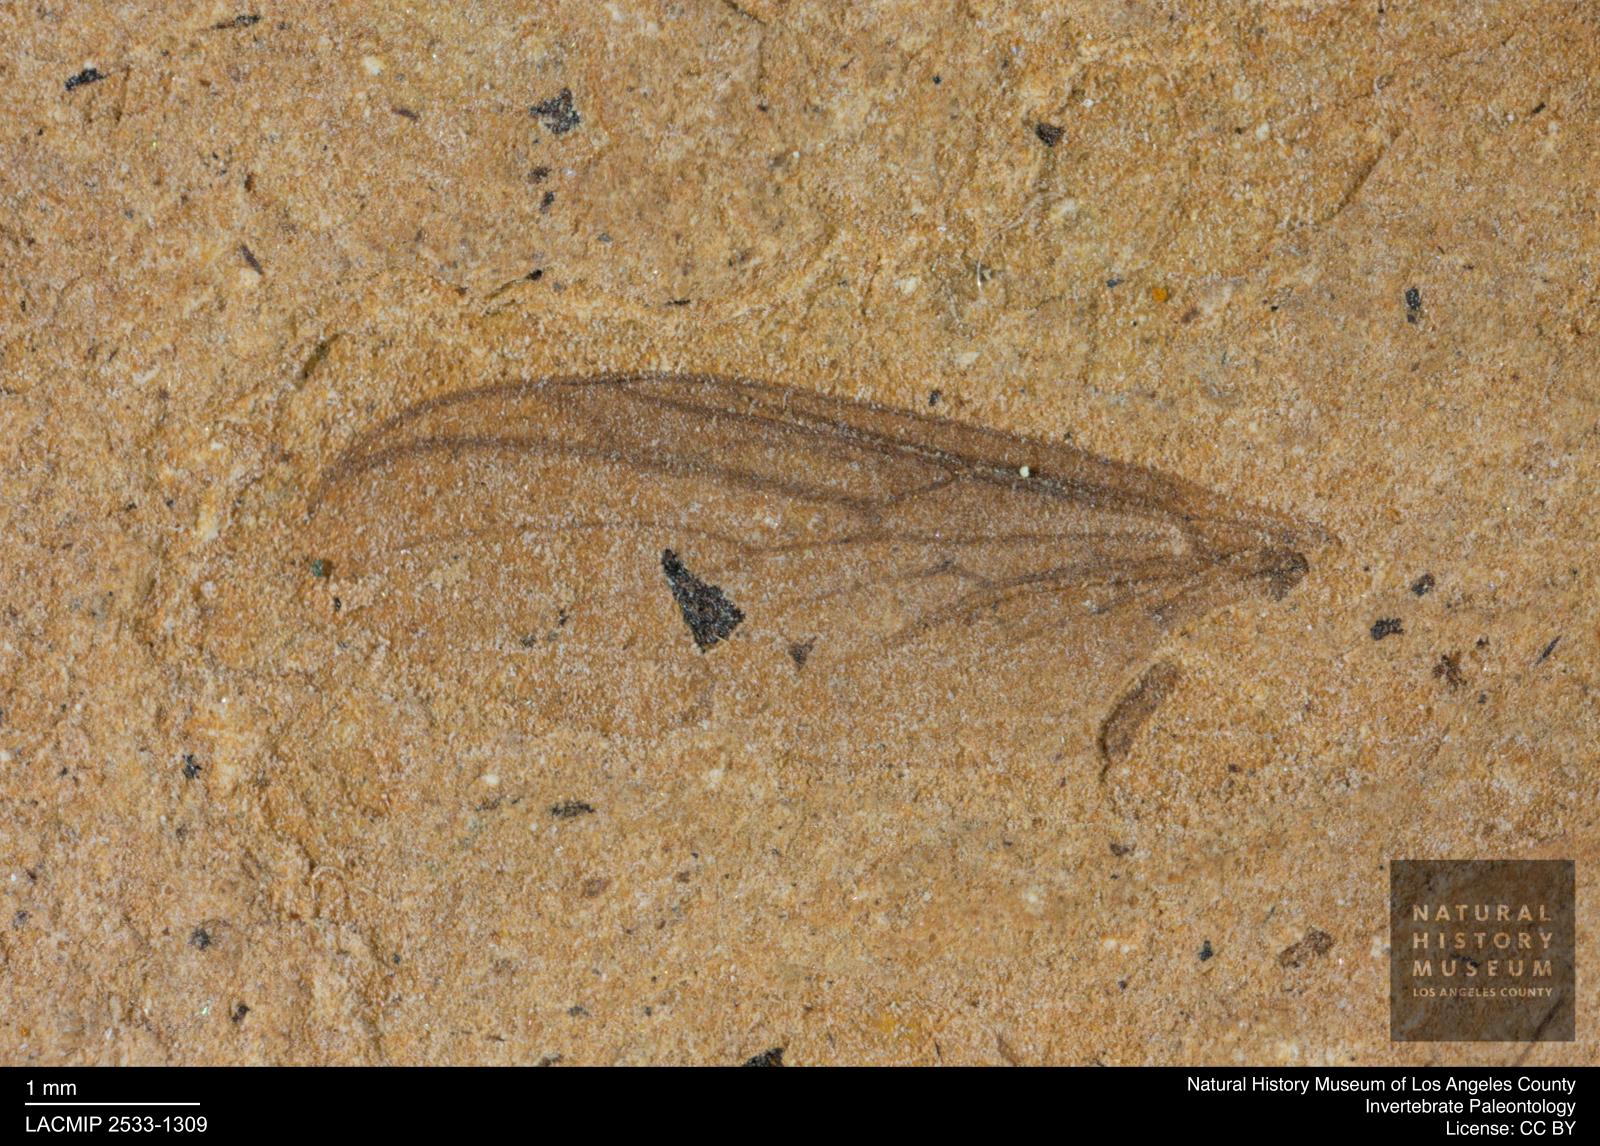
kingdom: Animalia
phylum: Arthropoda
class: Insecta
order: Diptera
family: Bibionidae
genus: Plecia
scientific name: Plecia pinguis
